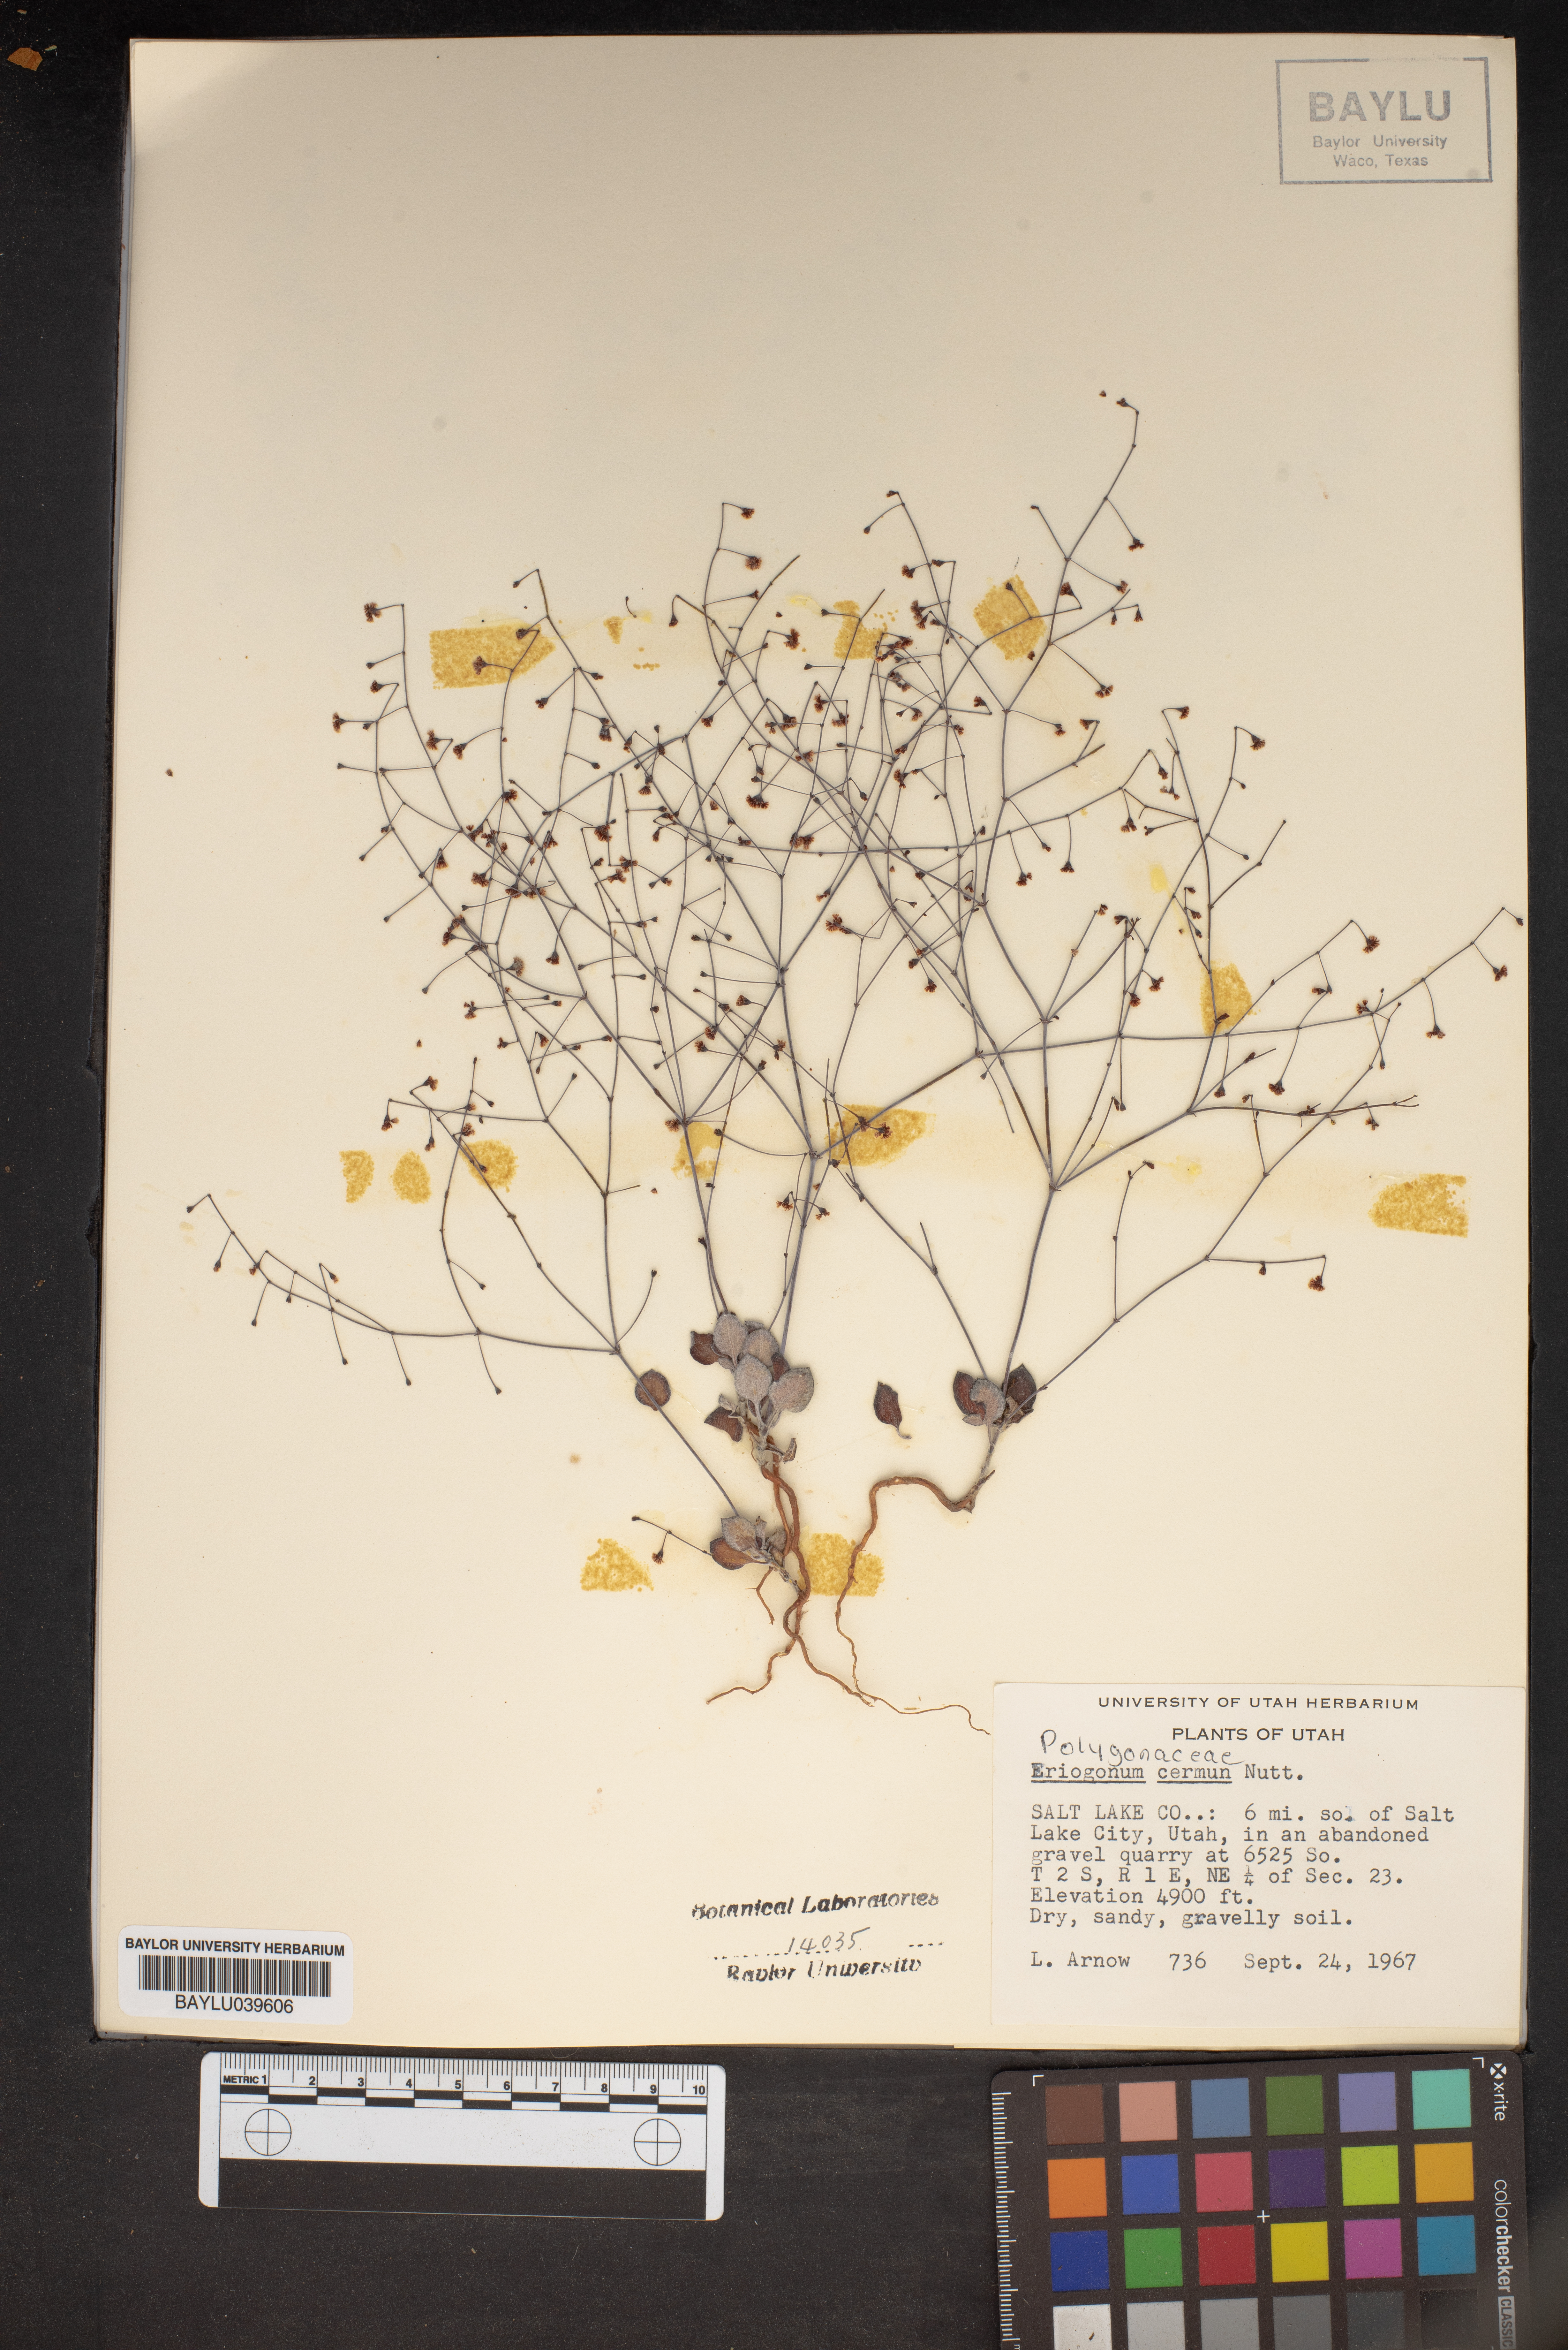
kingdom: Plantae
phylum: Tracheophyta
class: Magnoliopsida
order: Caryophyllales
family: Polygonaceae
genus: Eriogonum
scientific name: Eriogonum cernuum
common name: Nodding wild buckwheat
